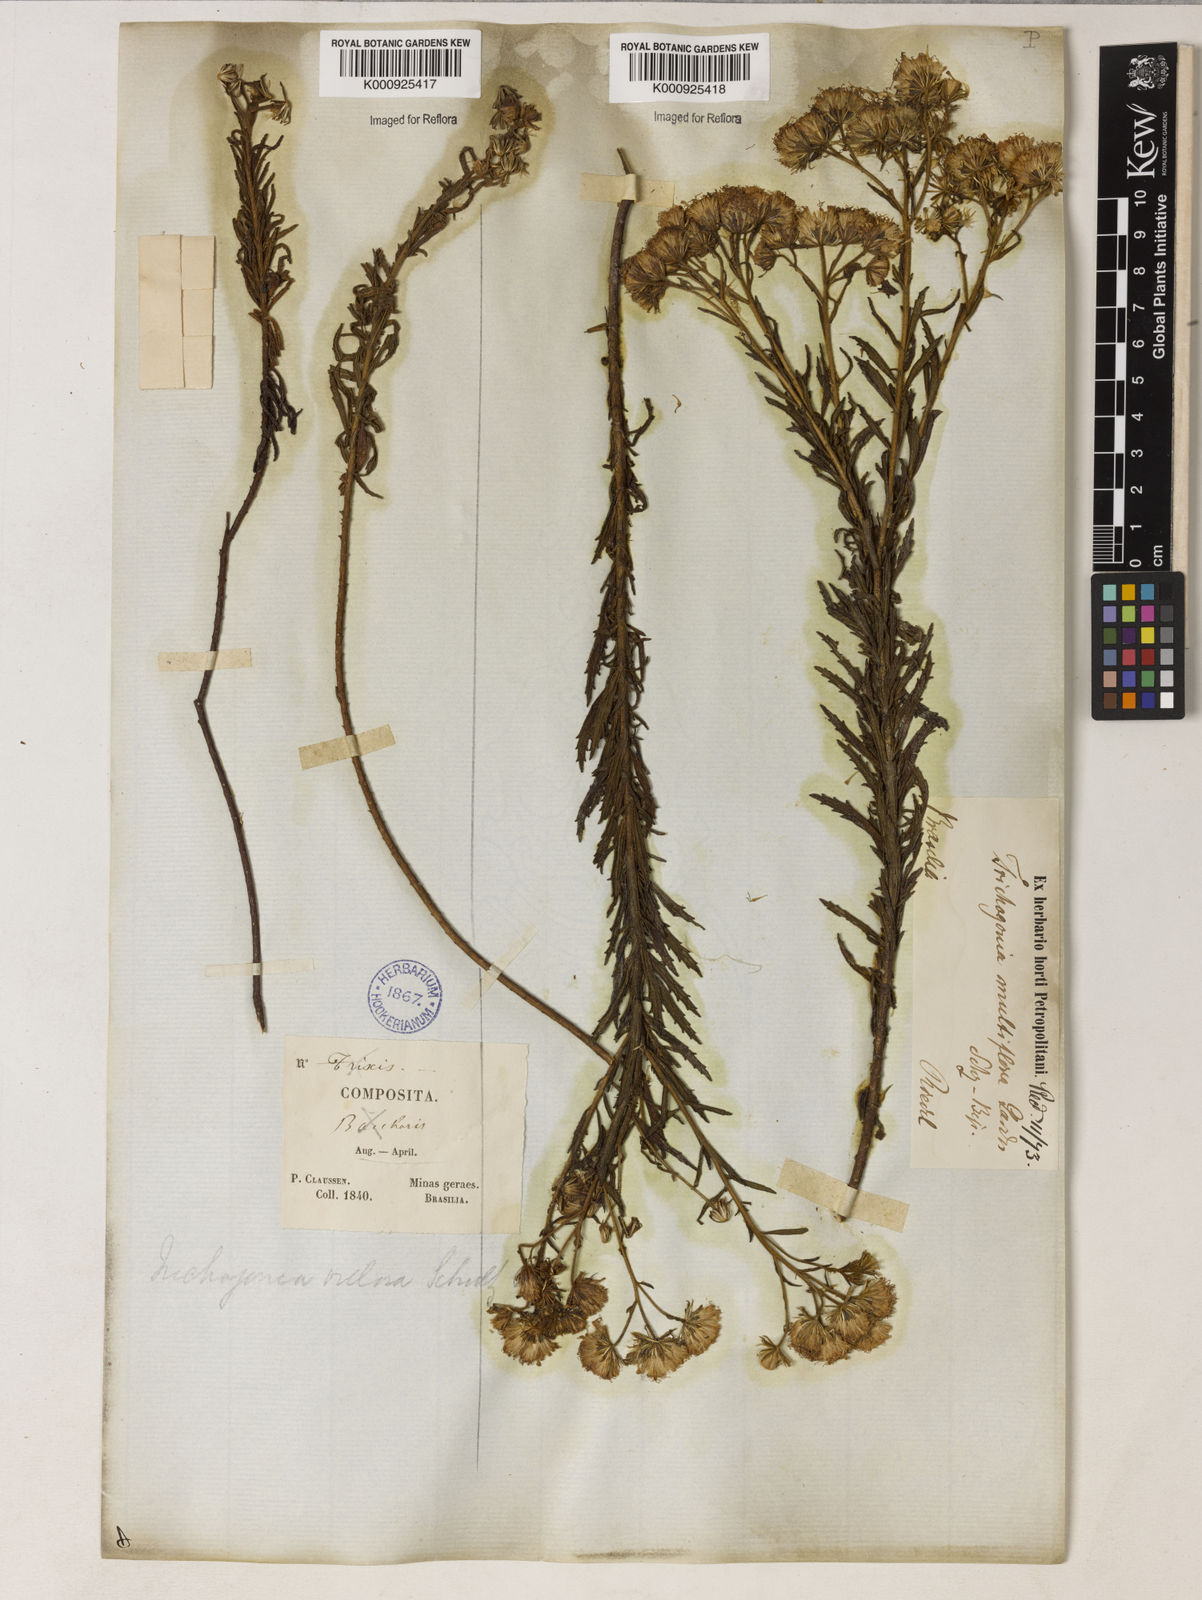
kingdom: Plantae
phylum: Tracheophyta
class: Magnoliopsida
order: Asterales
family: Asteraceae
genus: Trichogonia
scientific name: Trichogonia villosa
